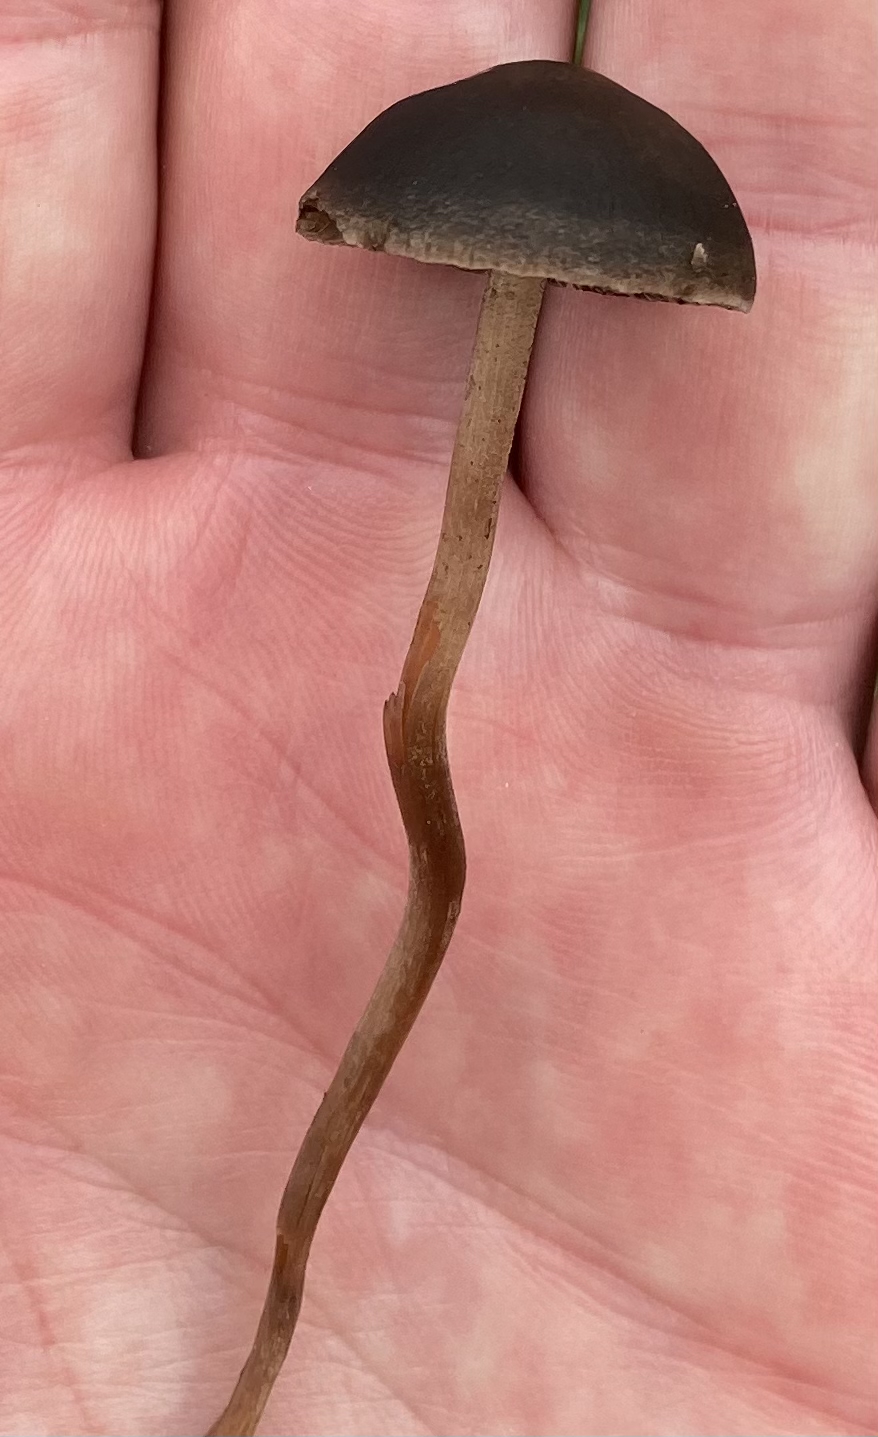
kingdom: Fungi
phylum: Basidiomycota
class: Agaricomycetes
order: Agaricales
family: Bolbitiaceae
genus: Panaeolus
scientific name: Panaeolus fimicola
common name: tidlig glanshat
